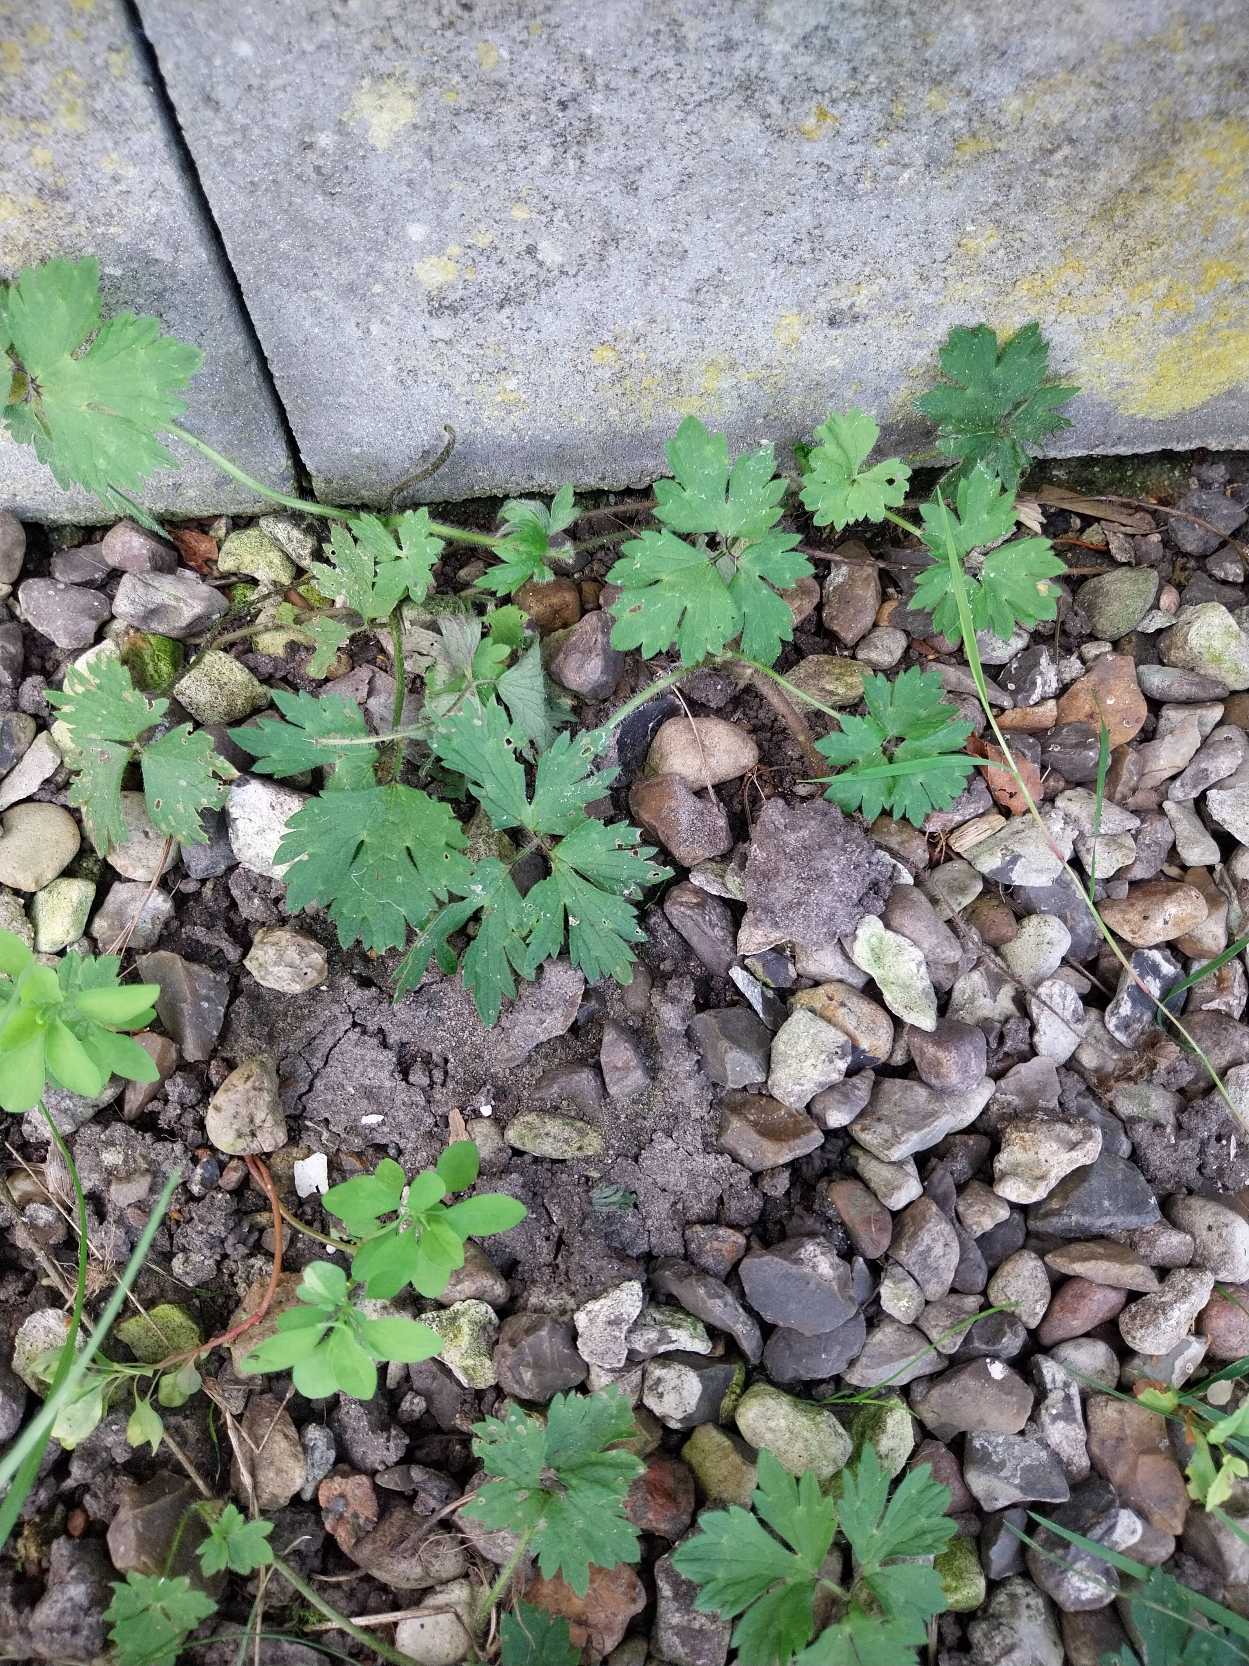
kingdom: Plantae
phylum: Tracheophyta
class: Magnoliopsida
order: Ranunculales
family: Ranunculaceae
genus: Ranunculus
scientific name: Ranunculus repens
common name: Lav ranunkel
